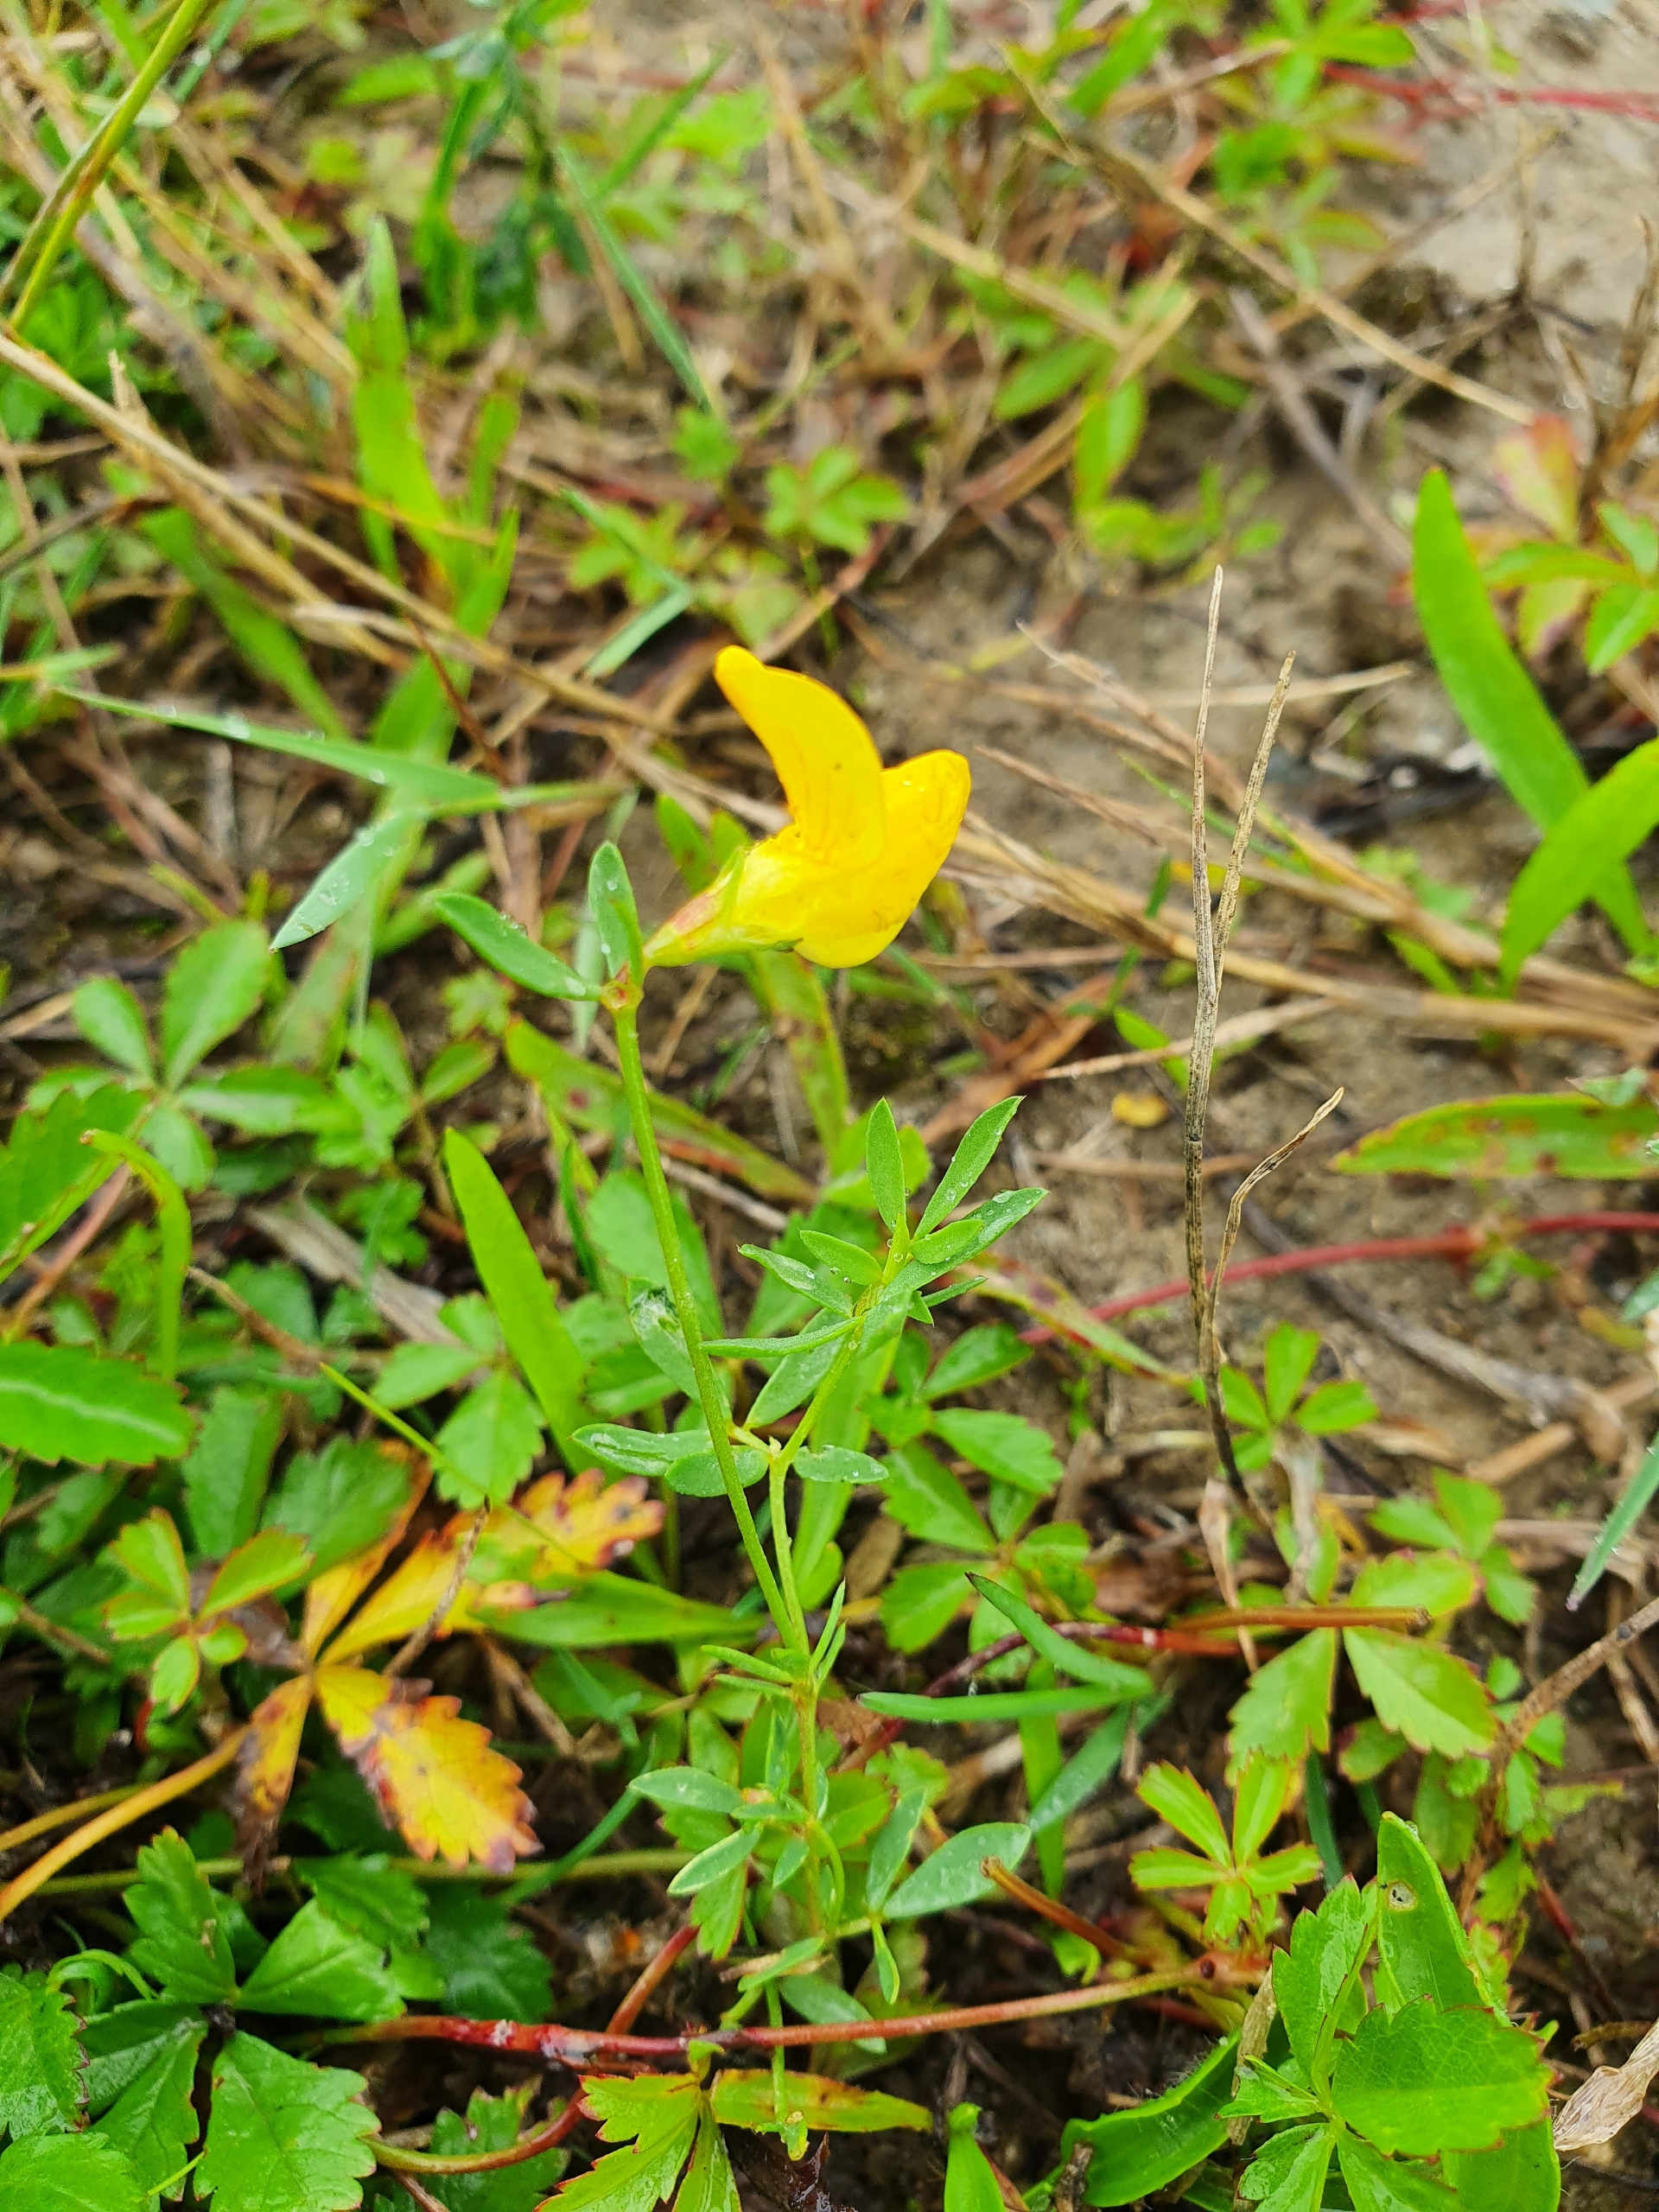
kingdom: Plantae
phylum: Tracheophyta
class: Magnoliopsida
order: Fabales
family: Fabaceae
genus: Lotus
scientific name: Lotus tenuis
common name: Smalbladet kællingetand
